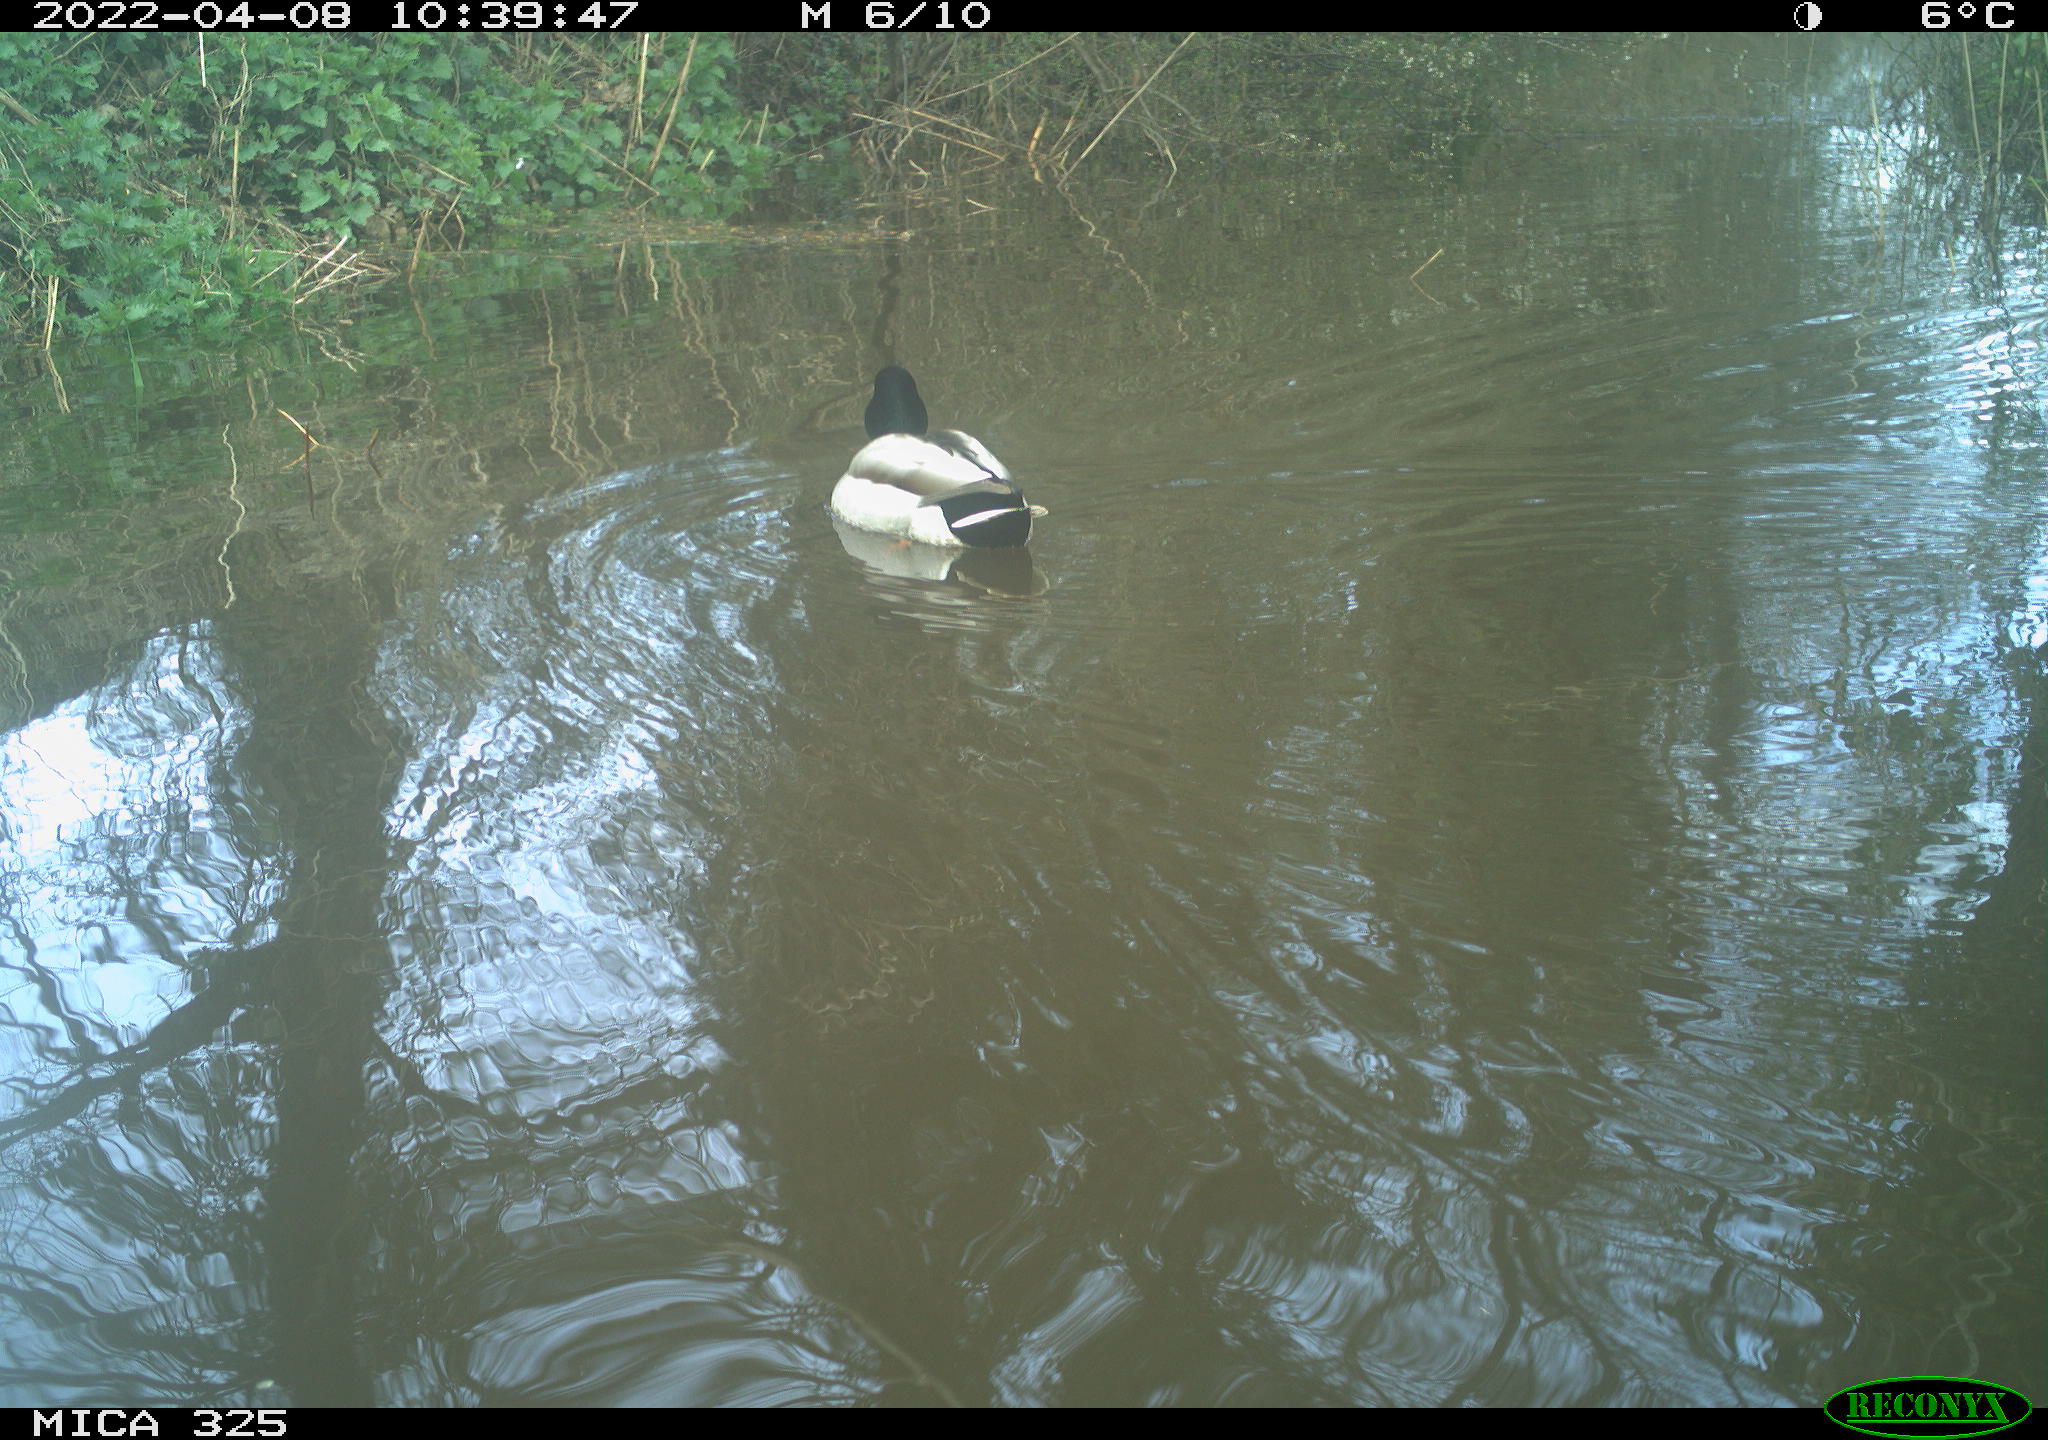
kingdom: Animalia
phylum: Chordata
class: Aves
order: Anseriformes
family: Anatidae
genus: Anas
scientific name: Anas platyrhynchos
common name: Mallard
